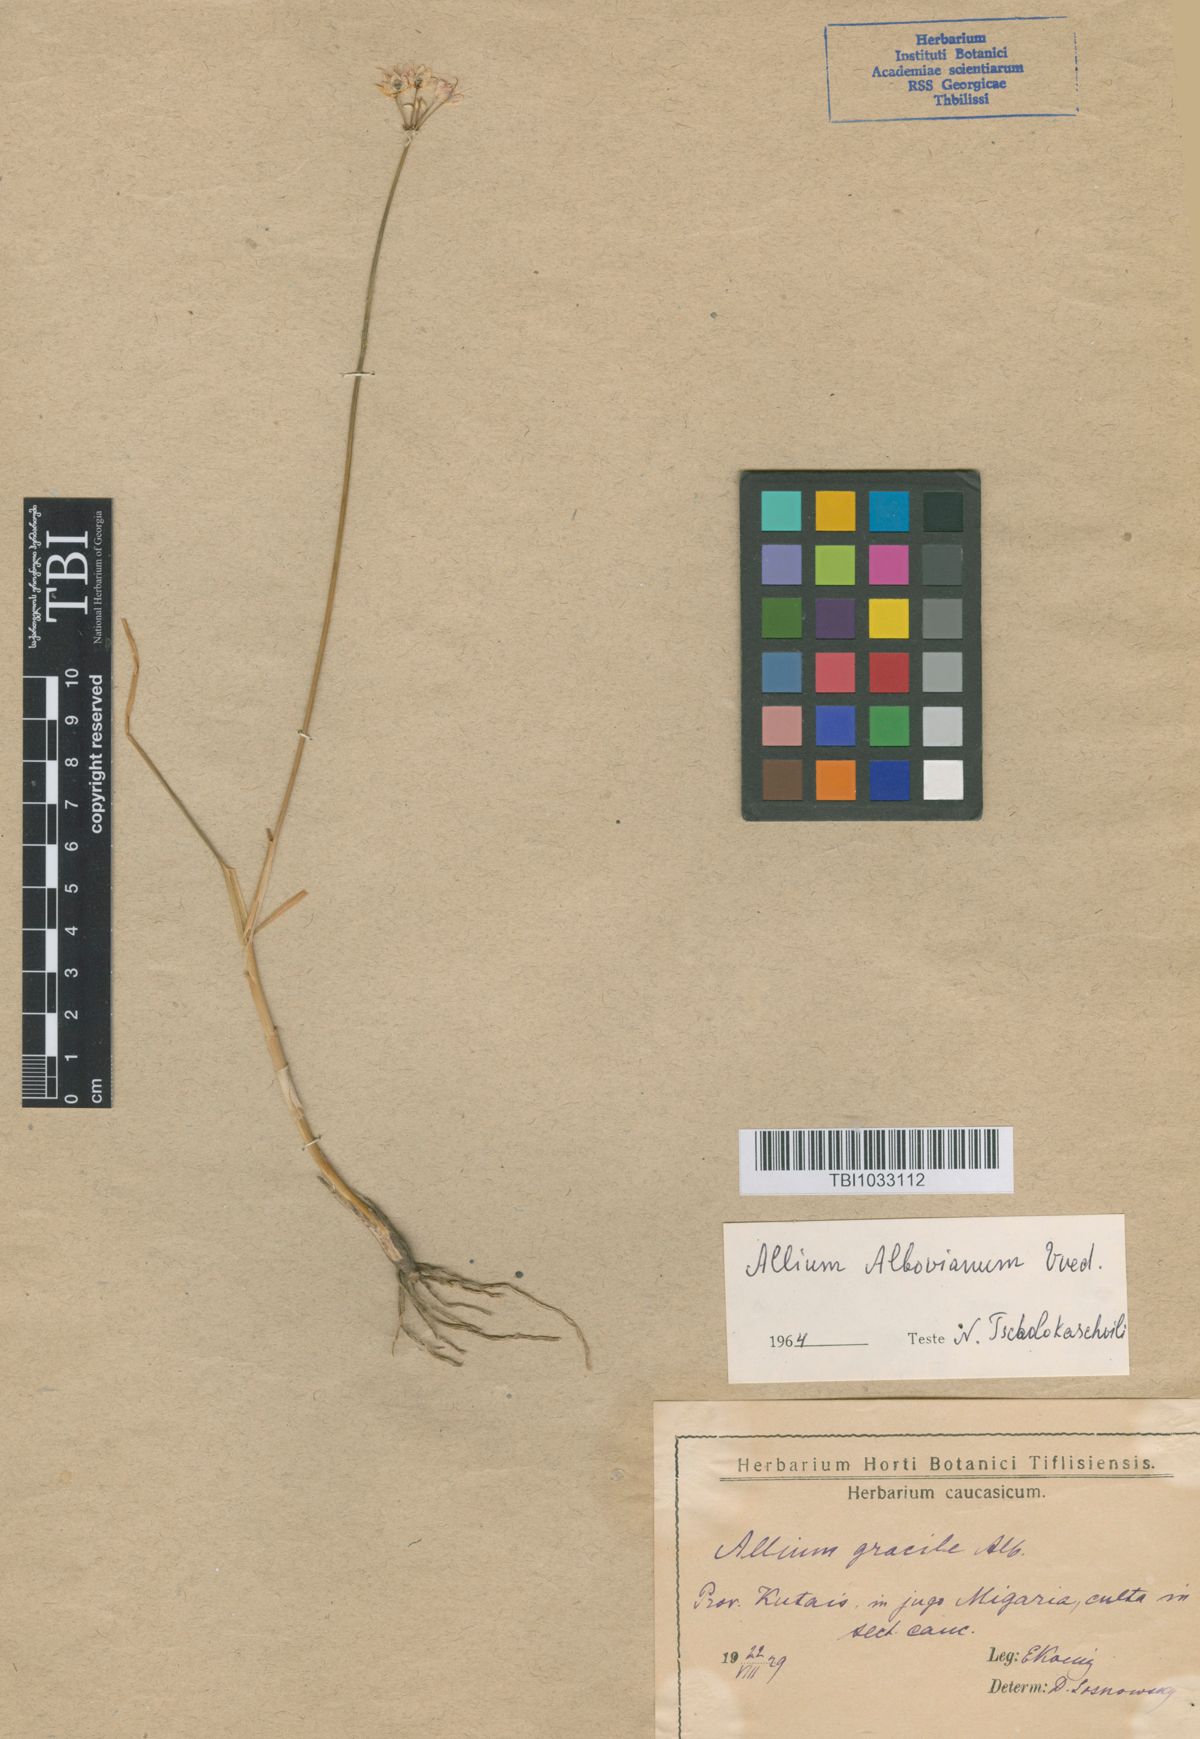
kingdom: Plantae
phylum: Tracheophyta
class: Liliopsida
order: Asparagales
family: Amaryllidaceae
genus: Allium
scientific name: Allium albovianum
